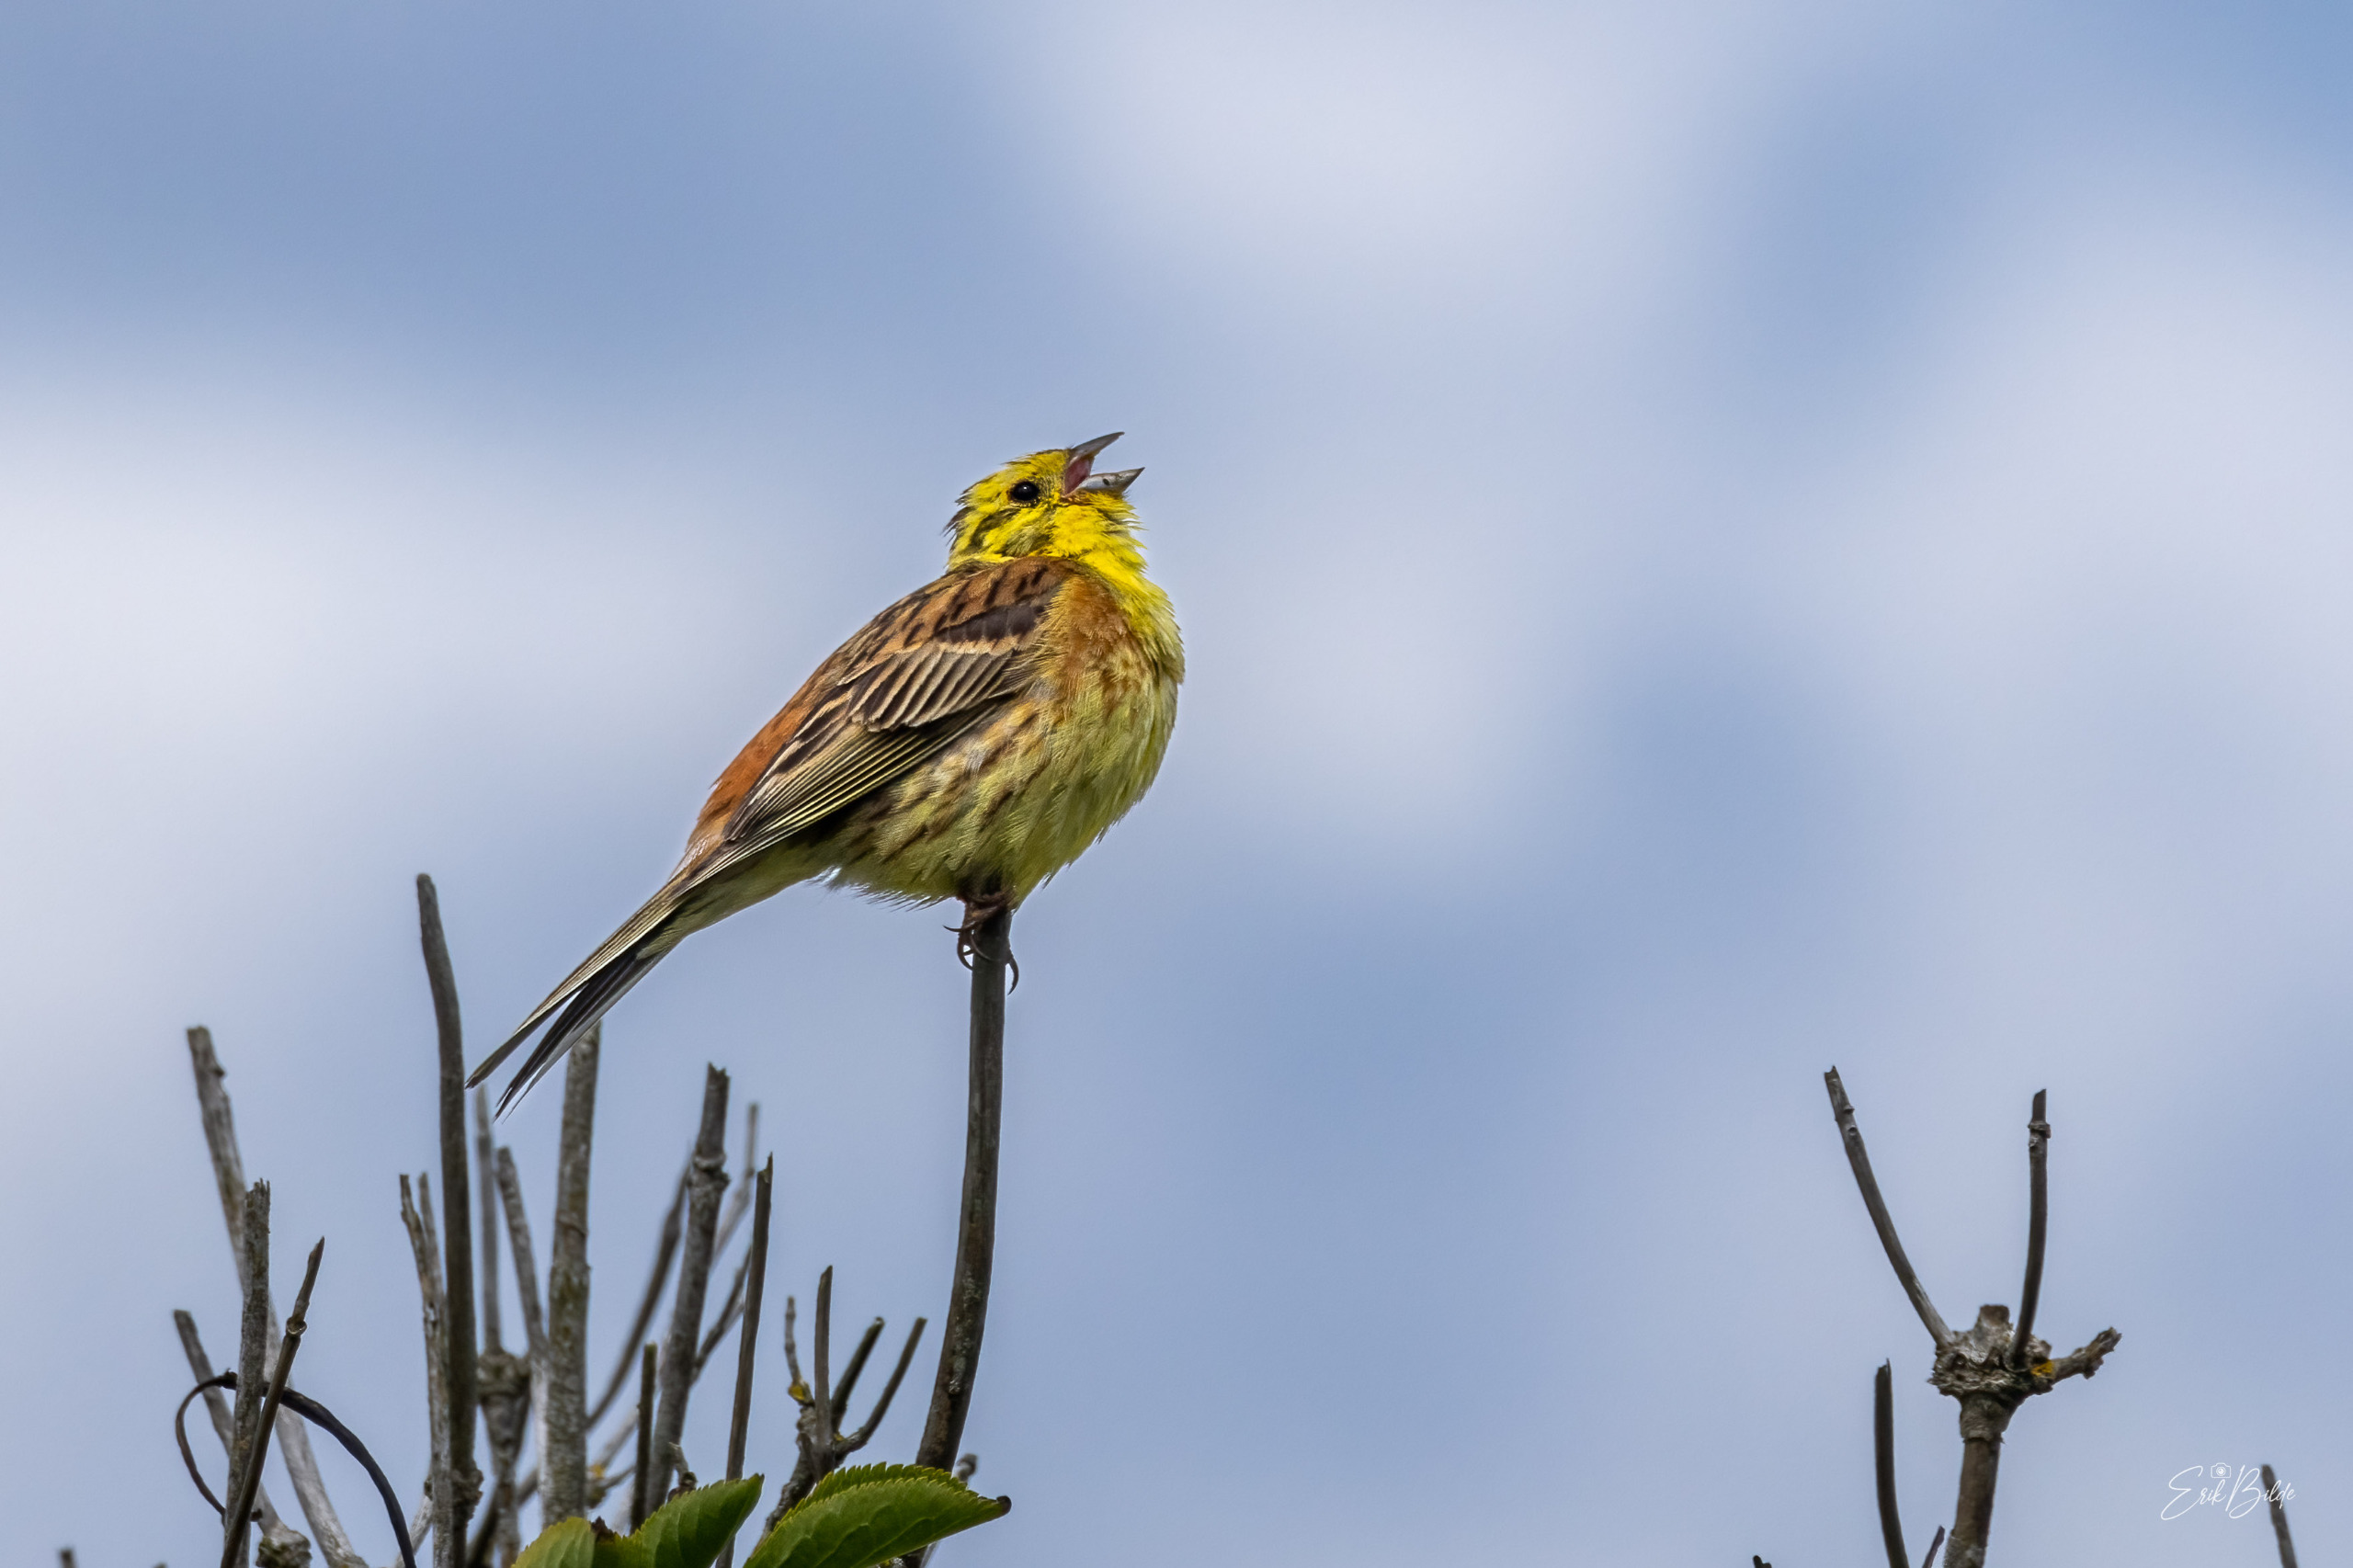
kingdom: Animalia
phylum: Chordata
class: Aves
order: Passeriformes
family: Emberizidae
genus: Emberiza
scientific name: Emberiza citrinella
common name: Gulspurv
